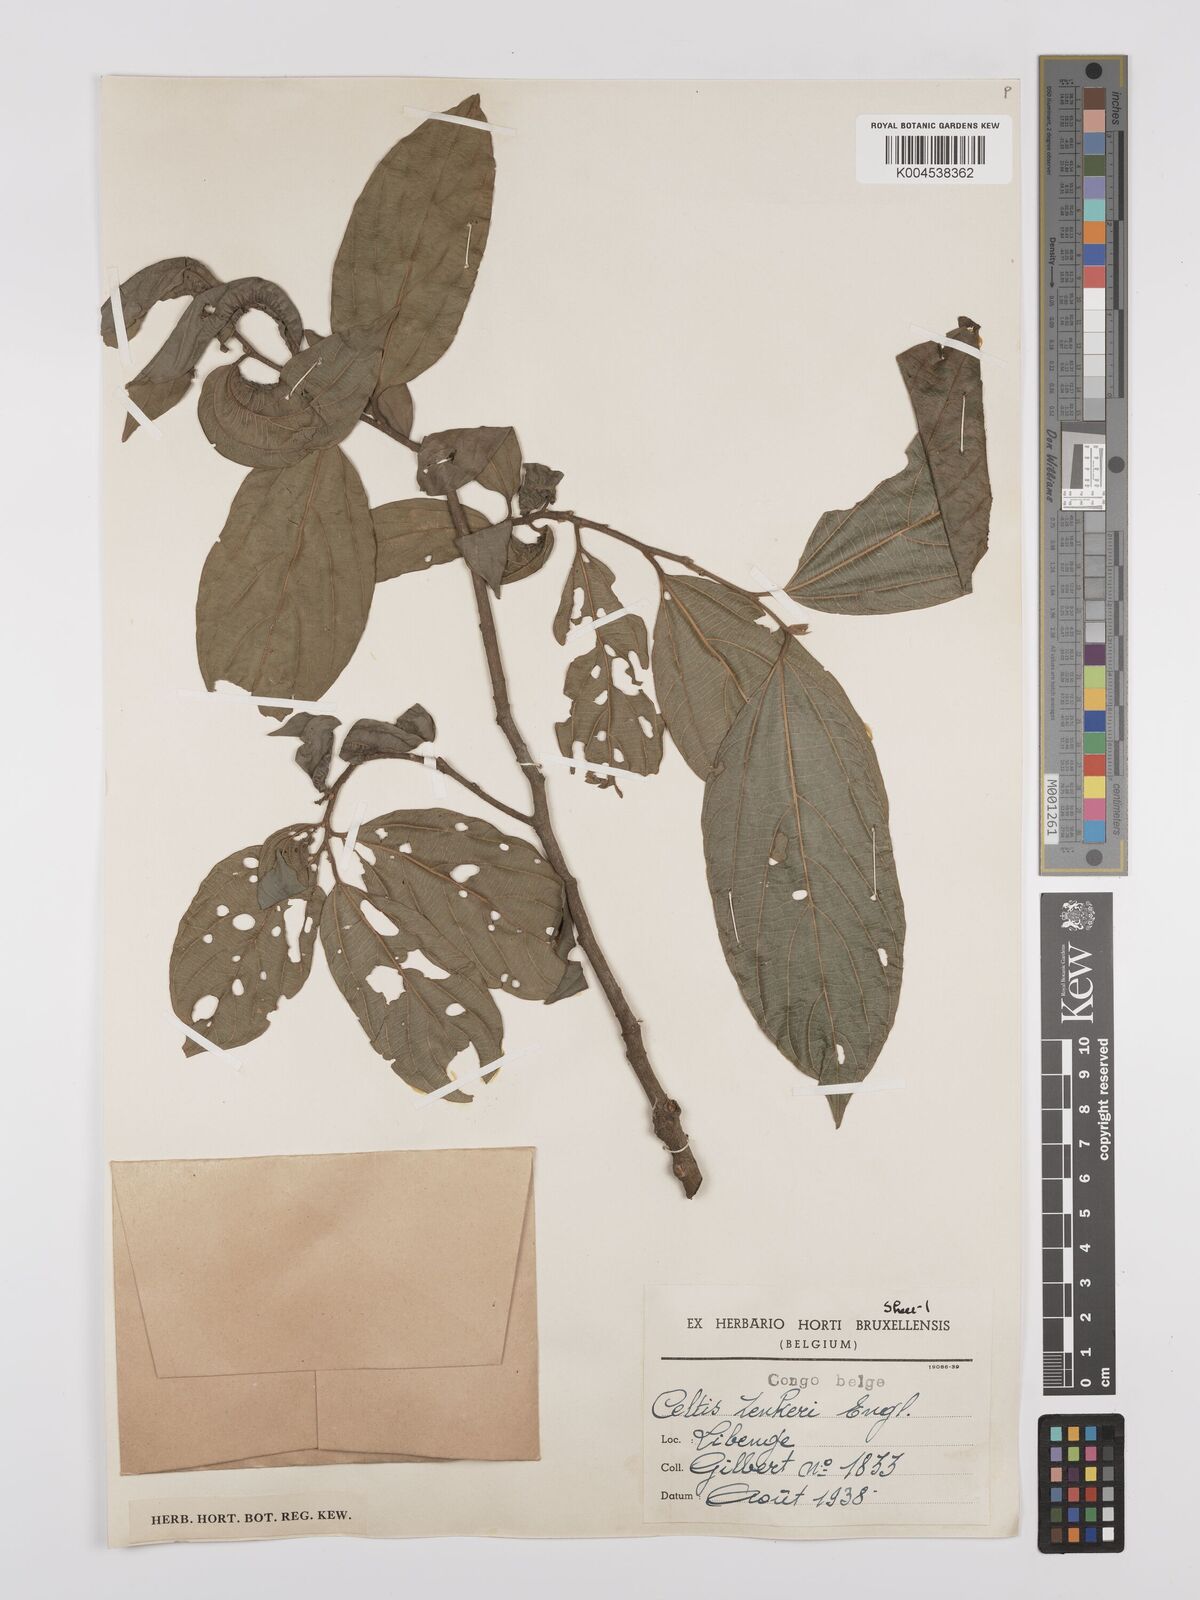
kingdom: Plantae
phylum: Tracheophyta
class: Magnoliopsida
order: Rosales
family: Cannabaceae
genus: Celtis
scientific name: Celtis zenkeri
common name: African celtis
